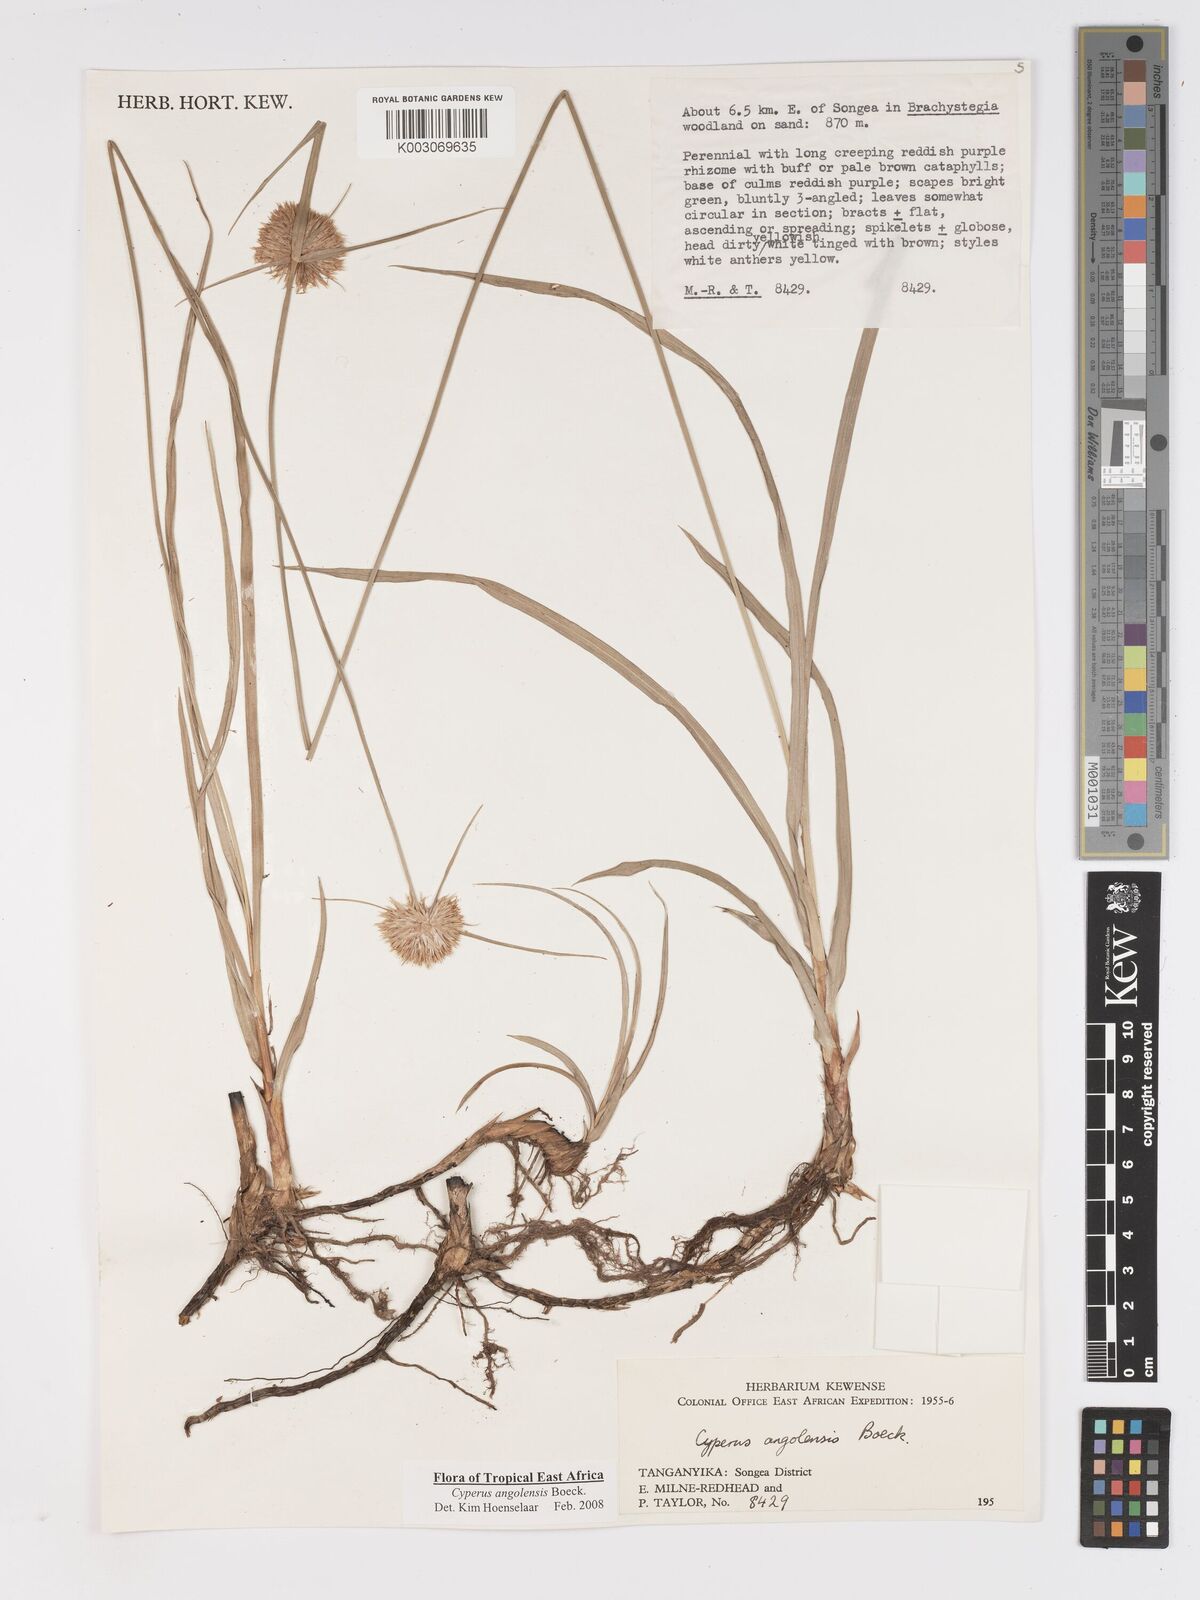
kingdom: Plantae
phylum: Tracheophyta
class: Liliopsida
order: Poales
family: Cyperaceae
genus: Cyperus
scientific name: Cyperus angolensis
